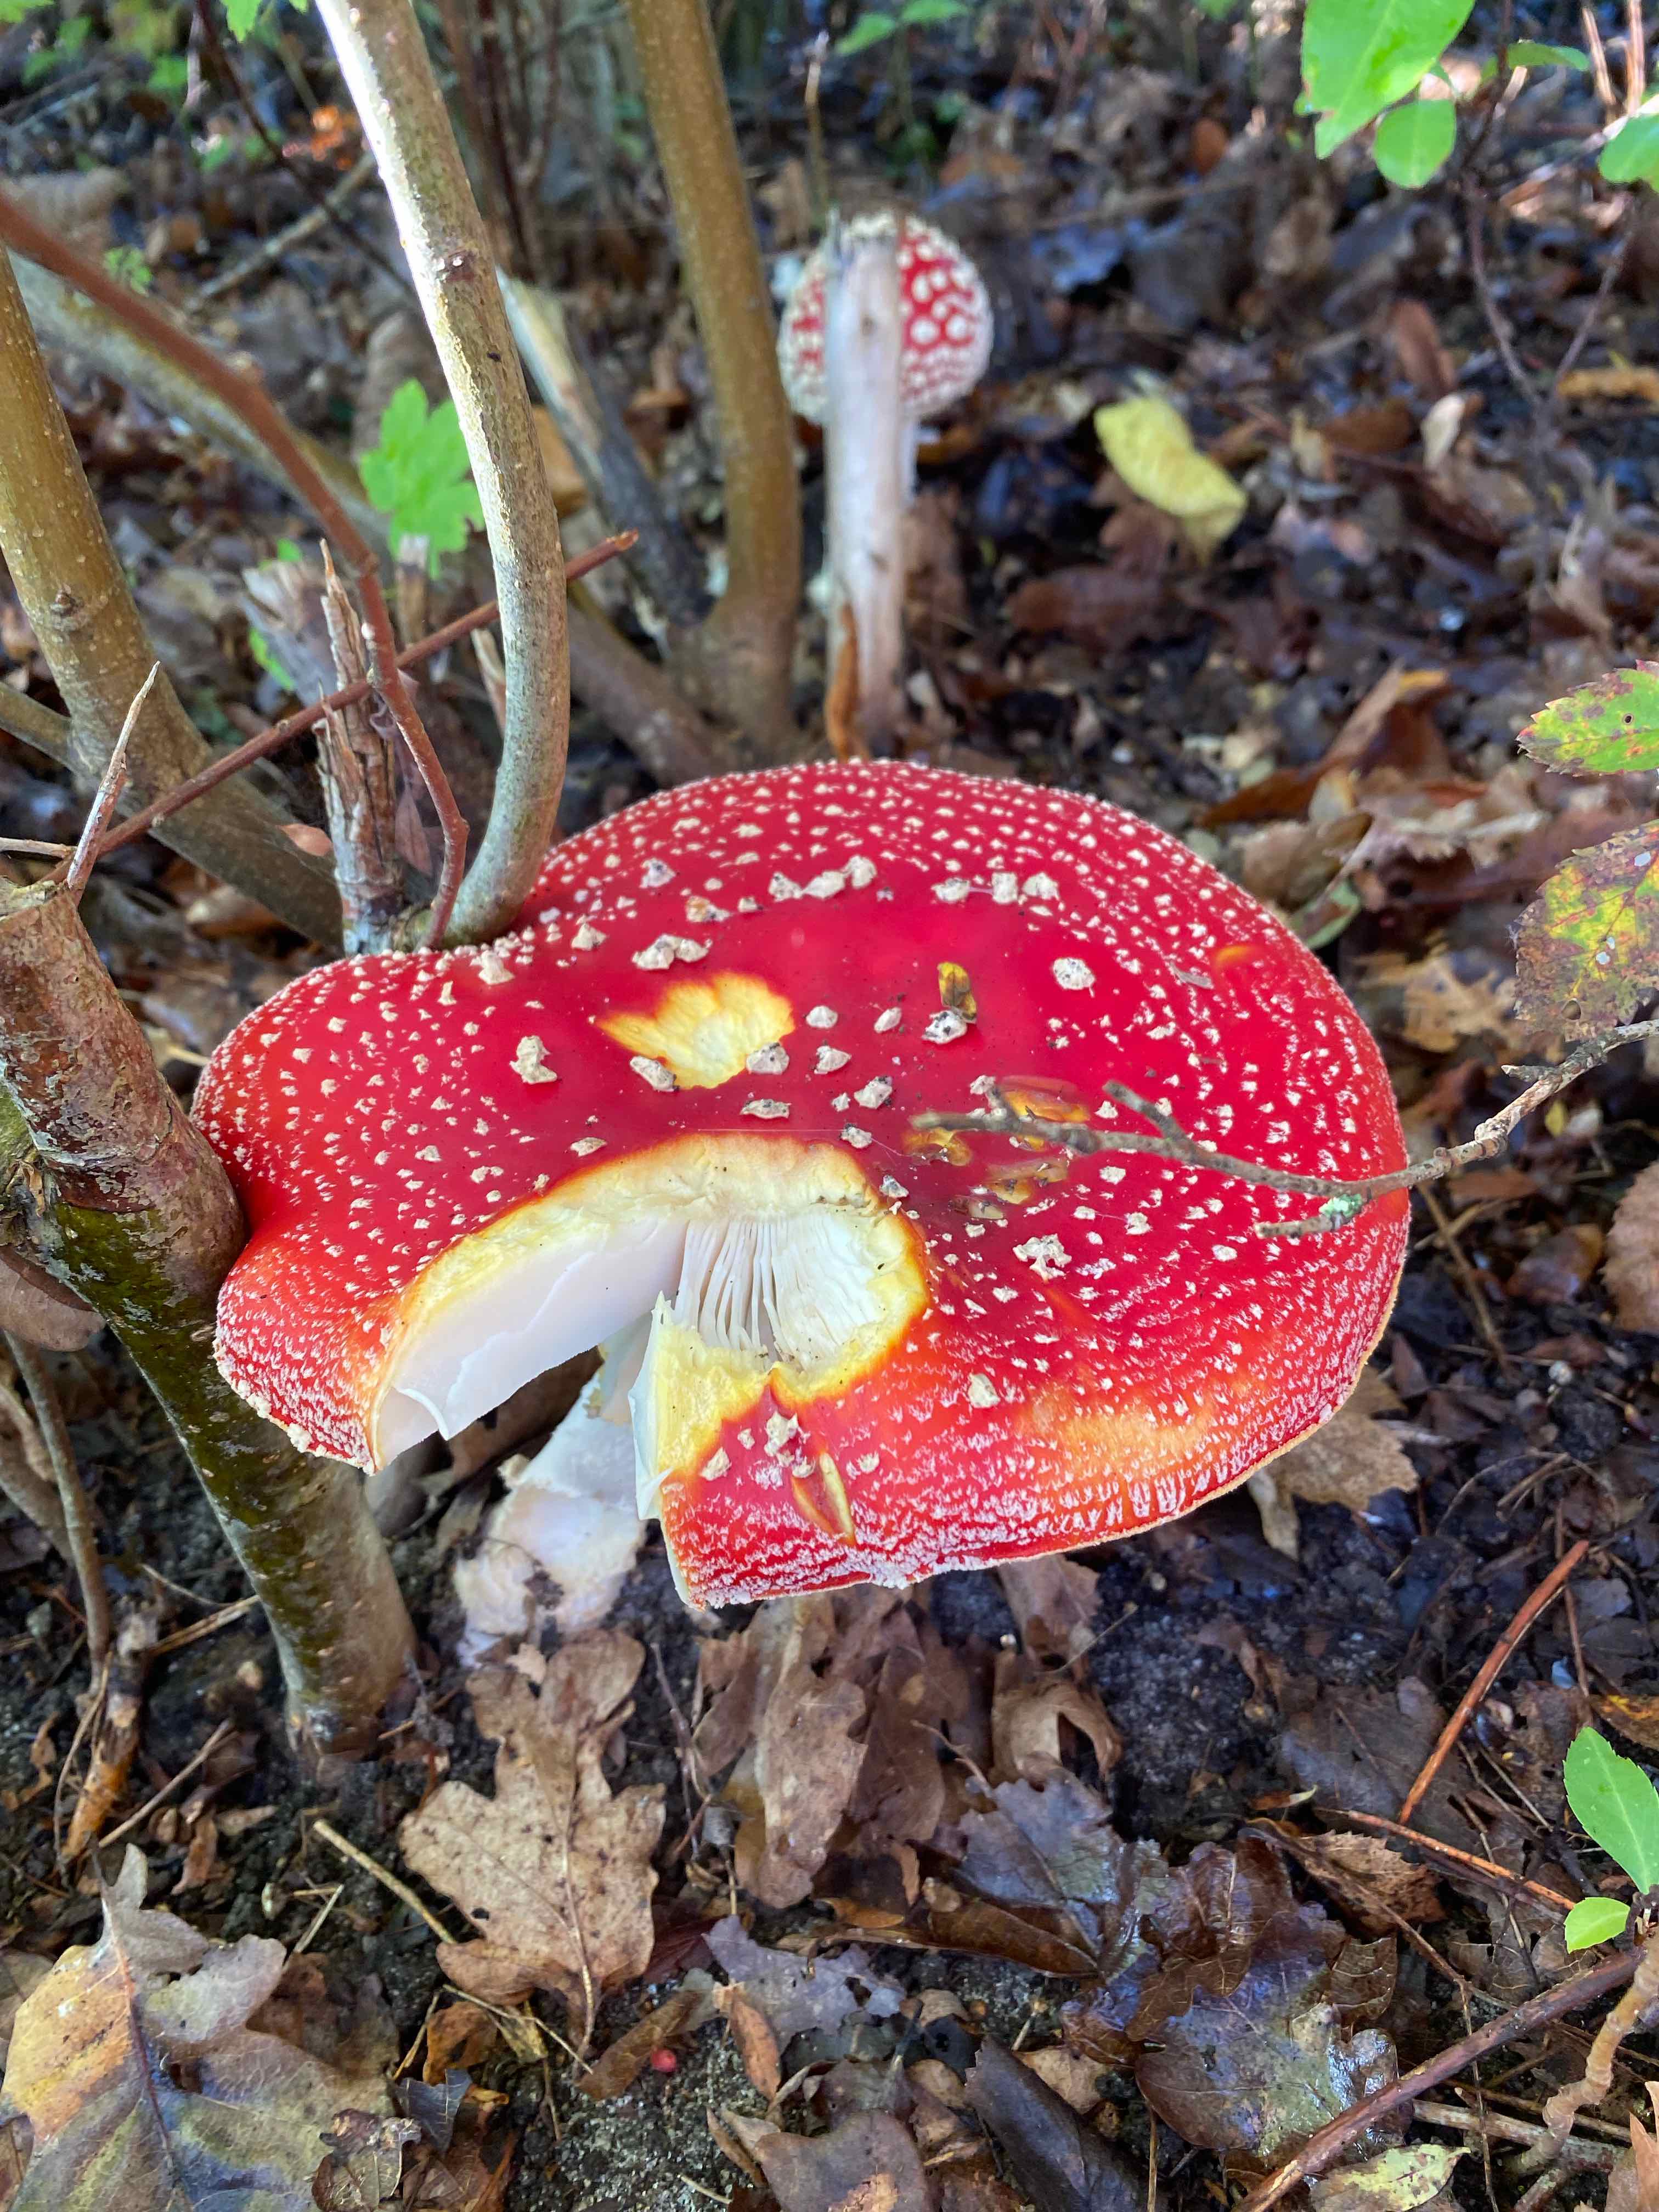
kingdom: Fungi
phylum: Basidiomycota
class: Agaricomycetes
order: Agaricales
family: Amanitaceae
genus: Amanita
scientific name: Amanita muscaria
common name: rød fluesvamp
